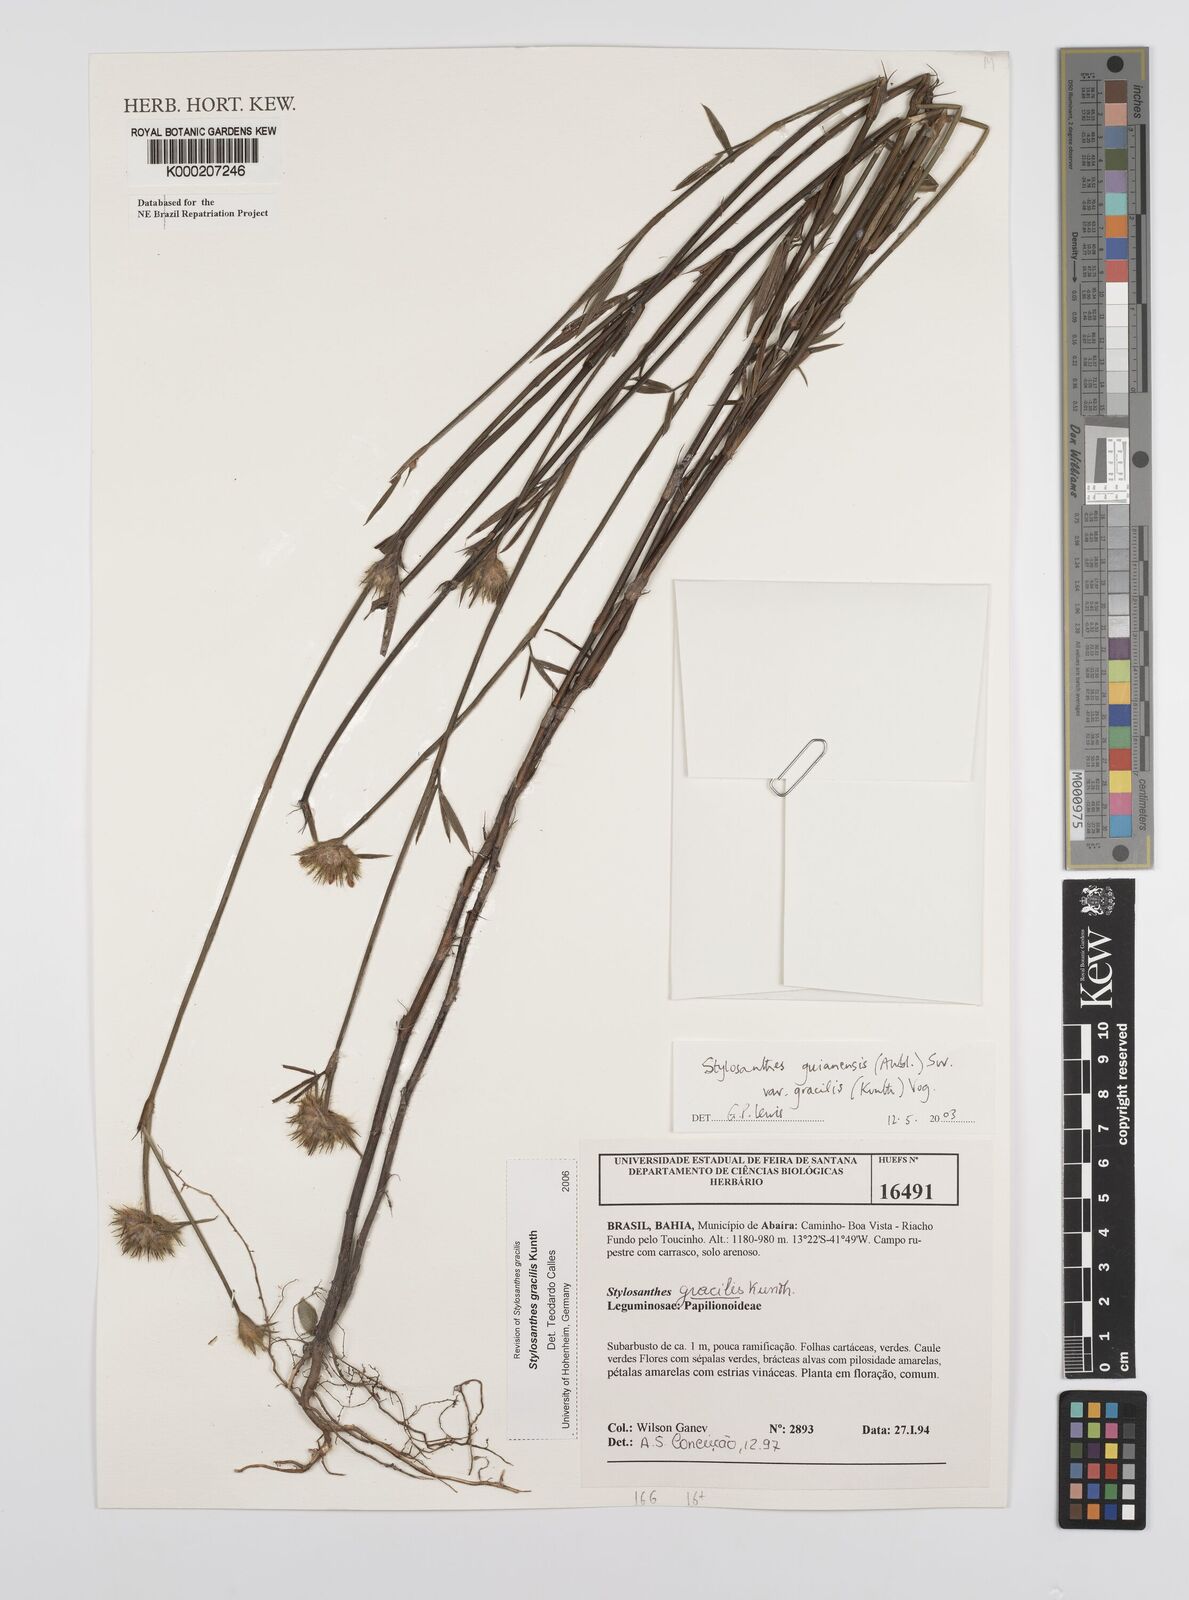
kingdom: Plantae
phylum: Tracheophyta
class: Magnoliopsida
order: Fabales
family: Fabaceae
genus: Stylosanthes
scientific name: Stylosanthes guianensis
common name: Pencil flower
